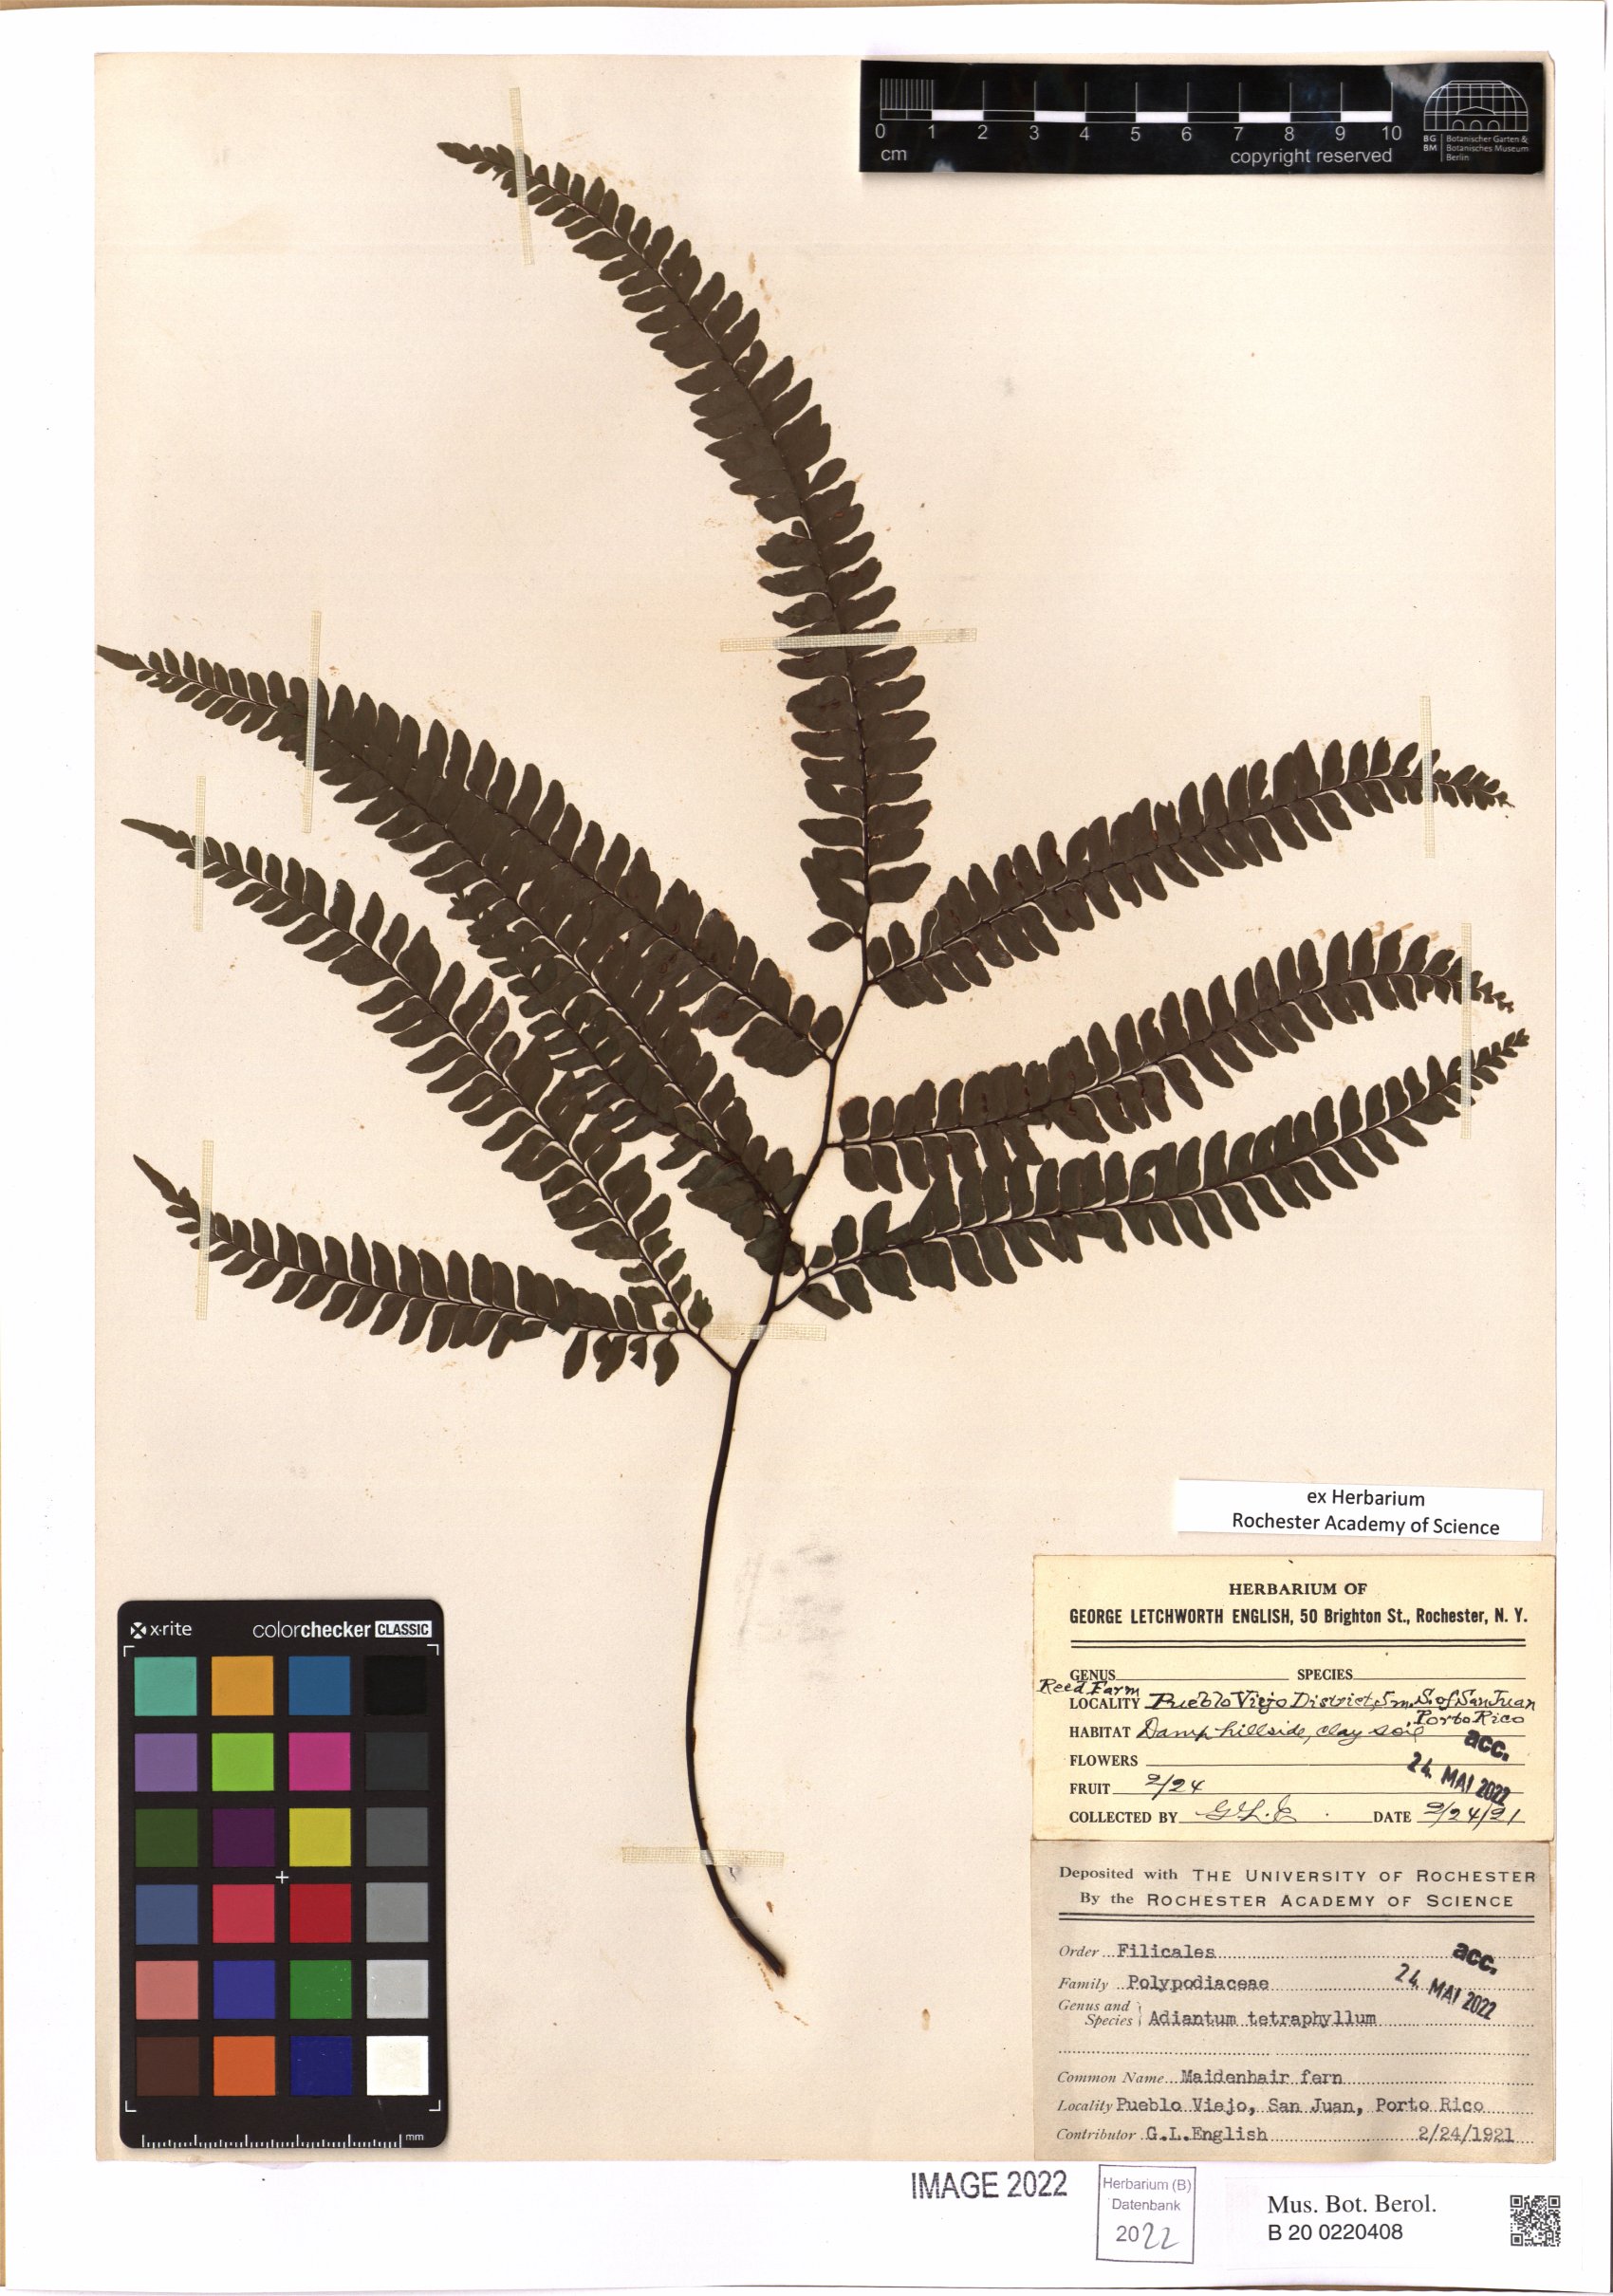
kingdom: Plantae
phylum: Tracheophyta
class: Polypodiopsida
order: Polypodiales
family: Pteridaceae
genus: Adiantum
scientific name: Adiantum tetraphyllum
